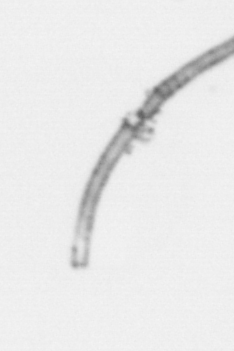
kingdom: Chromista
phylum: Ochrophyta
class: Bacillariophyceae
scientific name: Bacillariophyceae
